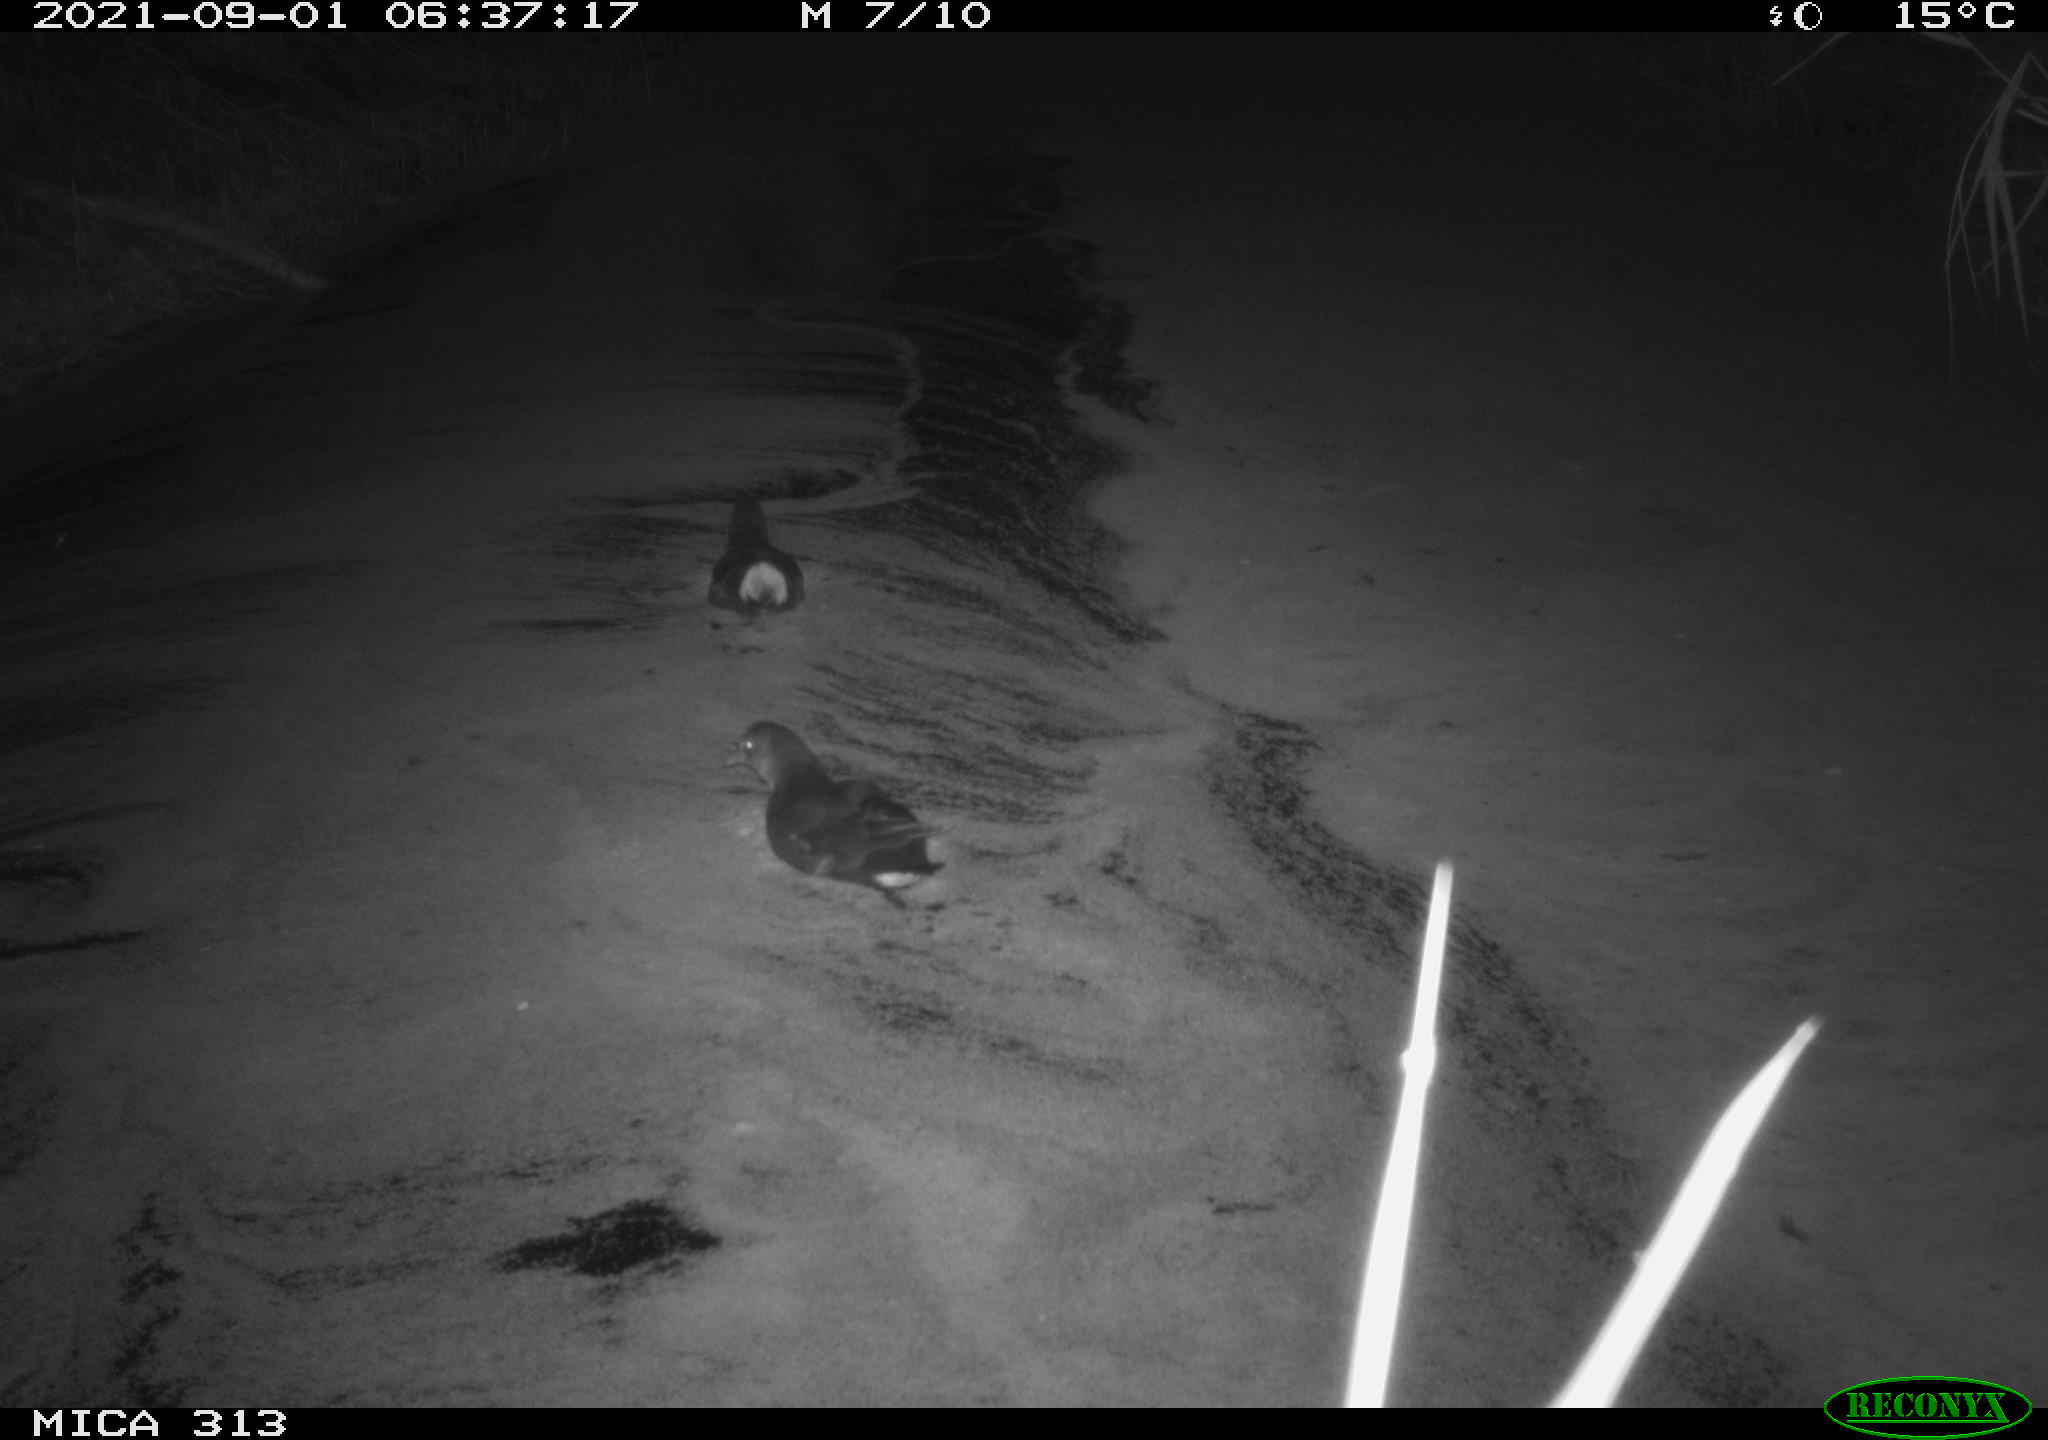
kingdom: Animalia
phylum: Chordata
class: Aves
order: Gruiformes
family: Rallidae
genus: Gallinula
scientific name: Gallinula chloropus
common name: Common moorhen
